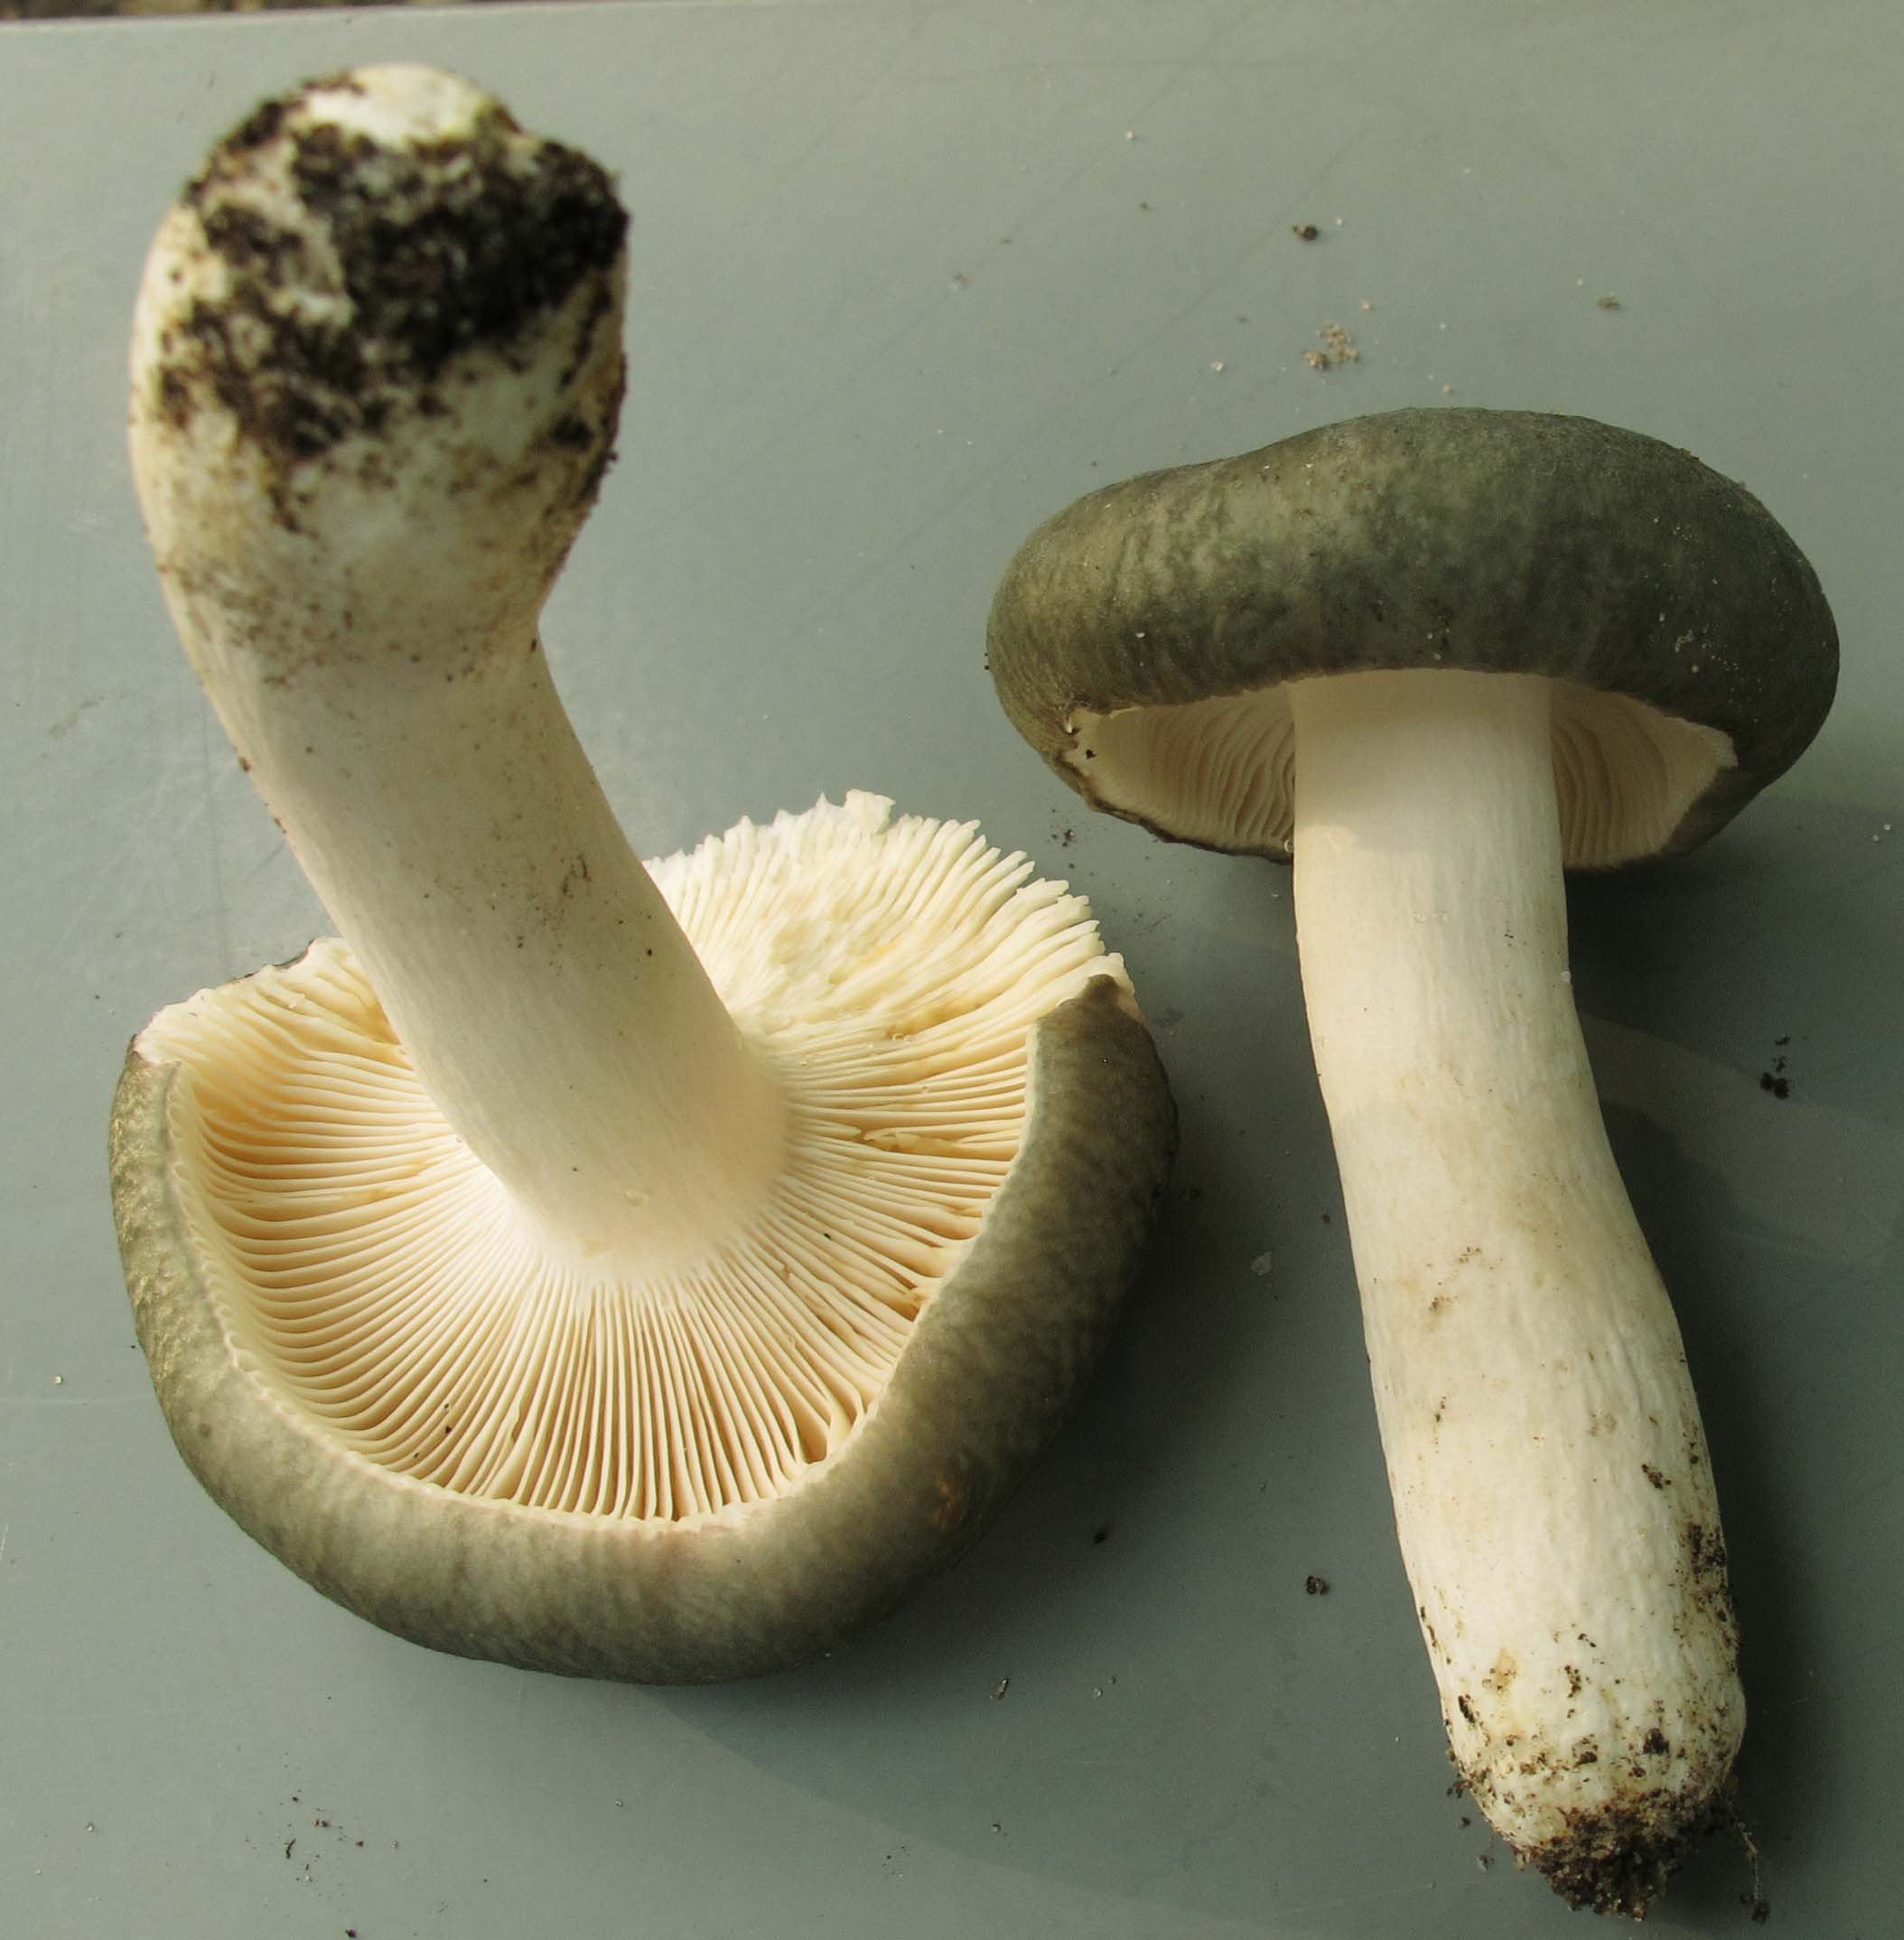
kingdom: Fungi
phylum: Basidiomycota
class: Agaricomycetes
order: Russulales
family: Russulaceae
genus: Russula
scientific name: Russula parazurea
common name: blågrå skørhat
